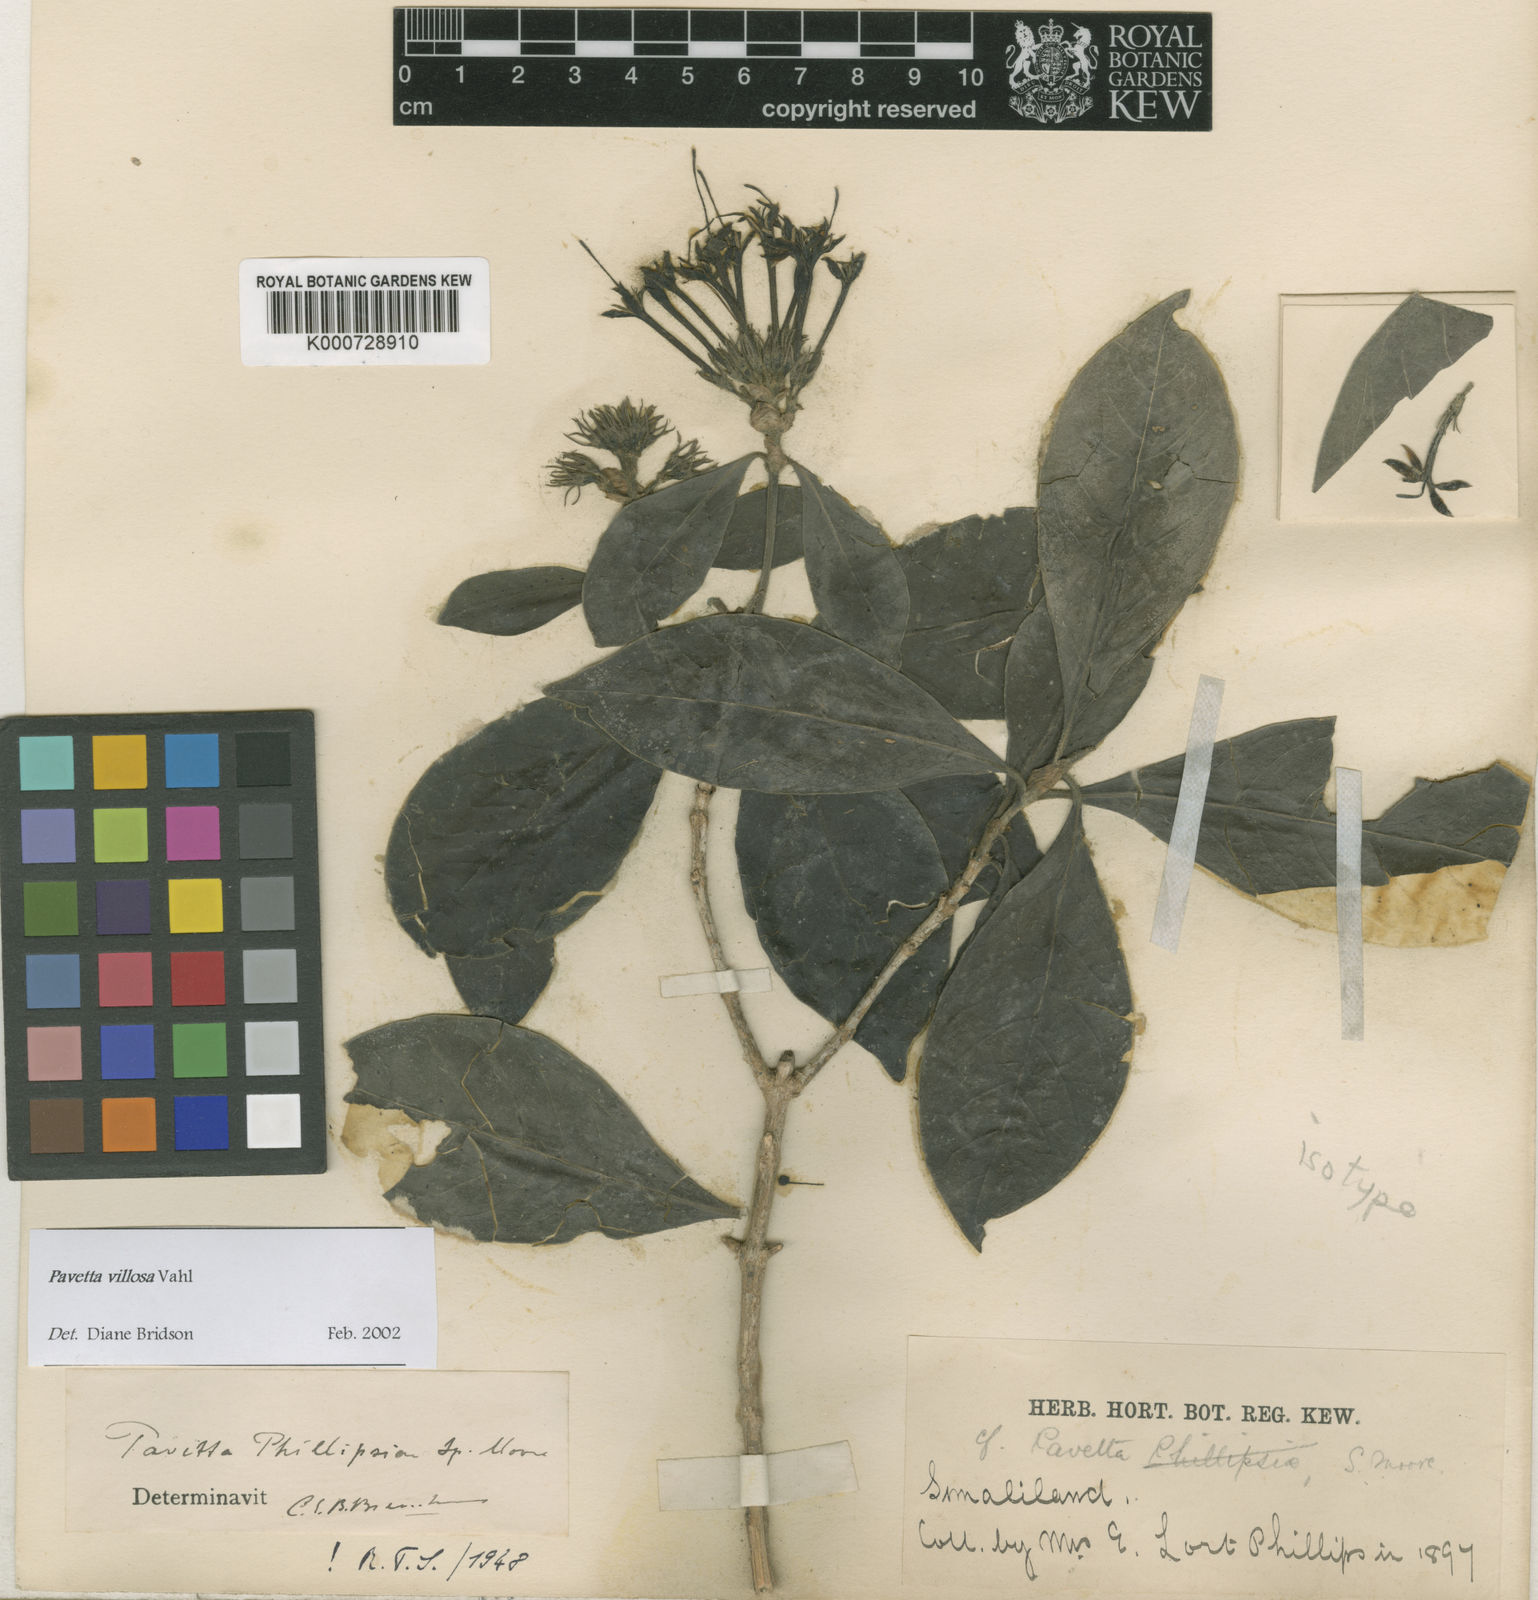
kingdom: Plantae
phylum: Tracheophyta
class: Magnoliopsida
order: Gentianales
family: Rubiaceae
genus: Pavetta
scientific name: Pavetta villosa
